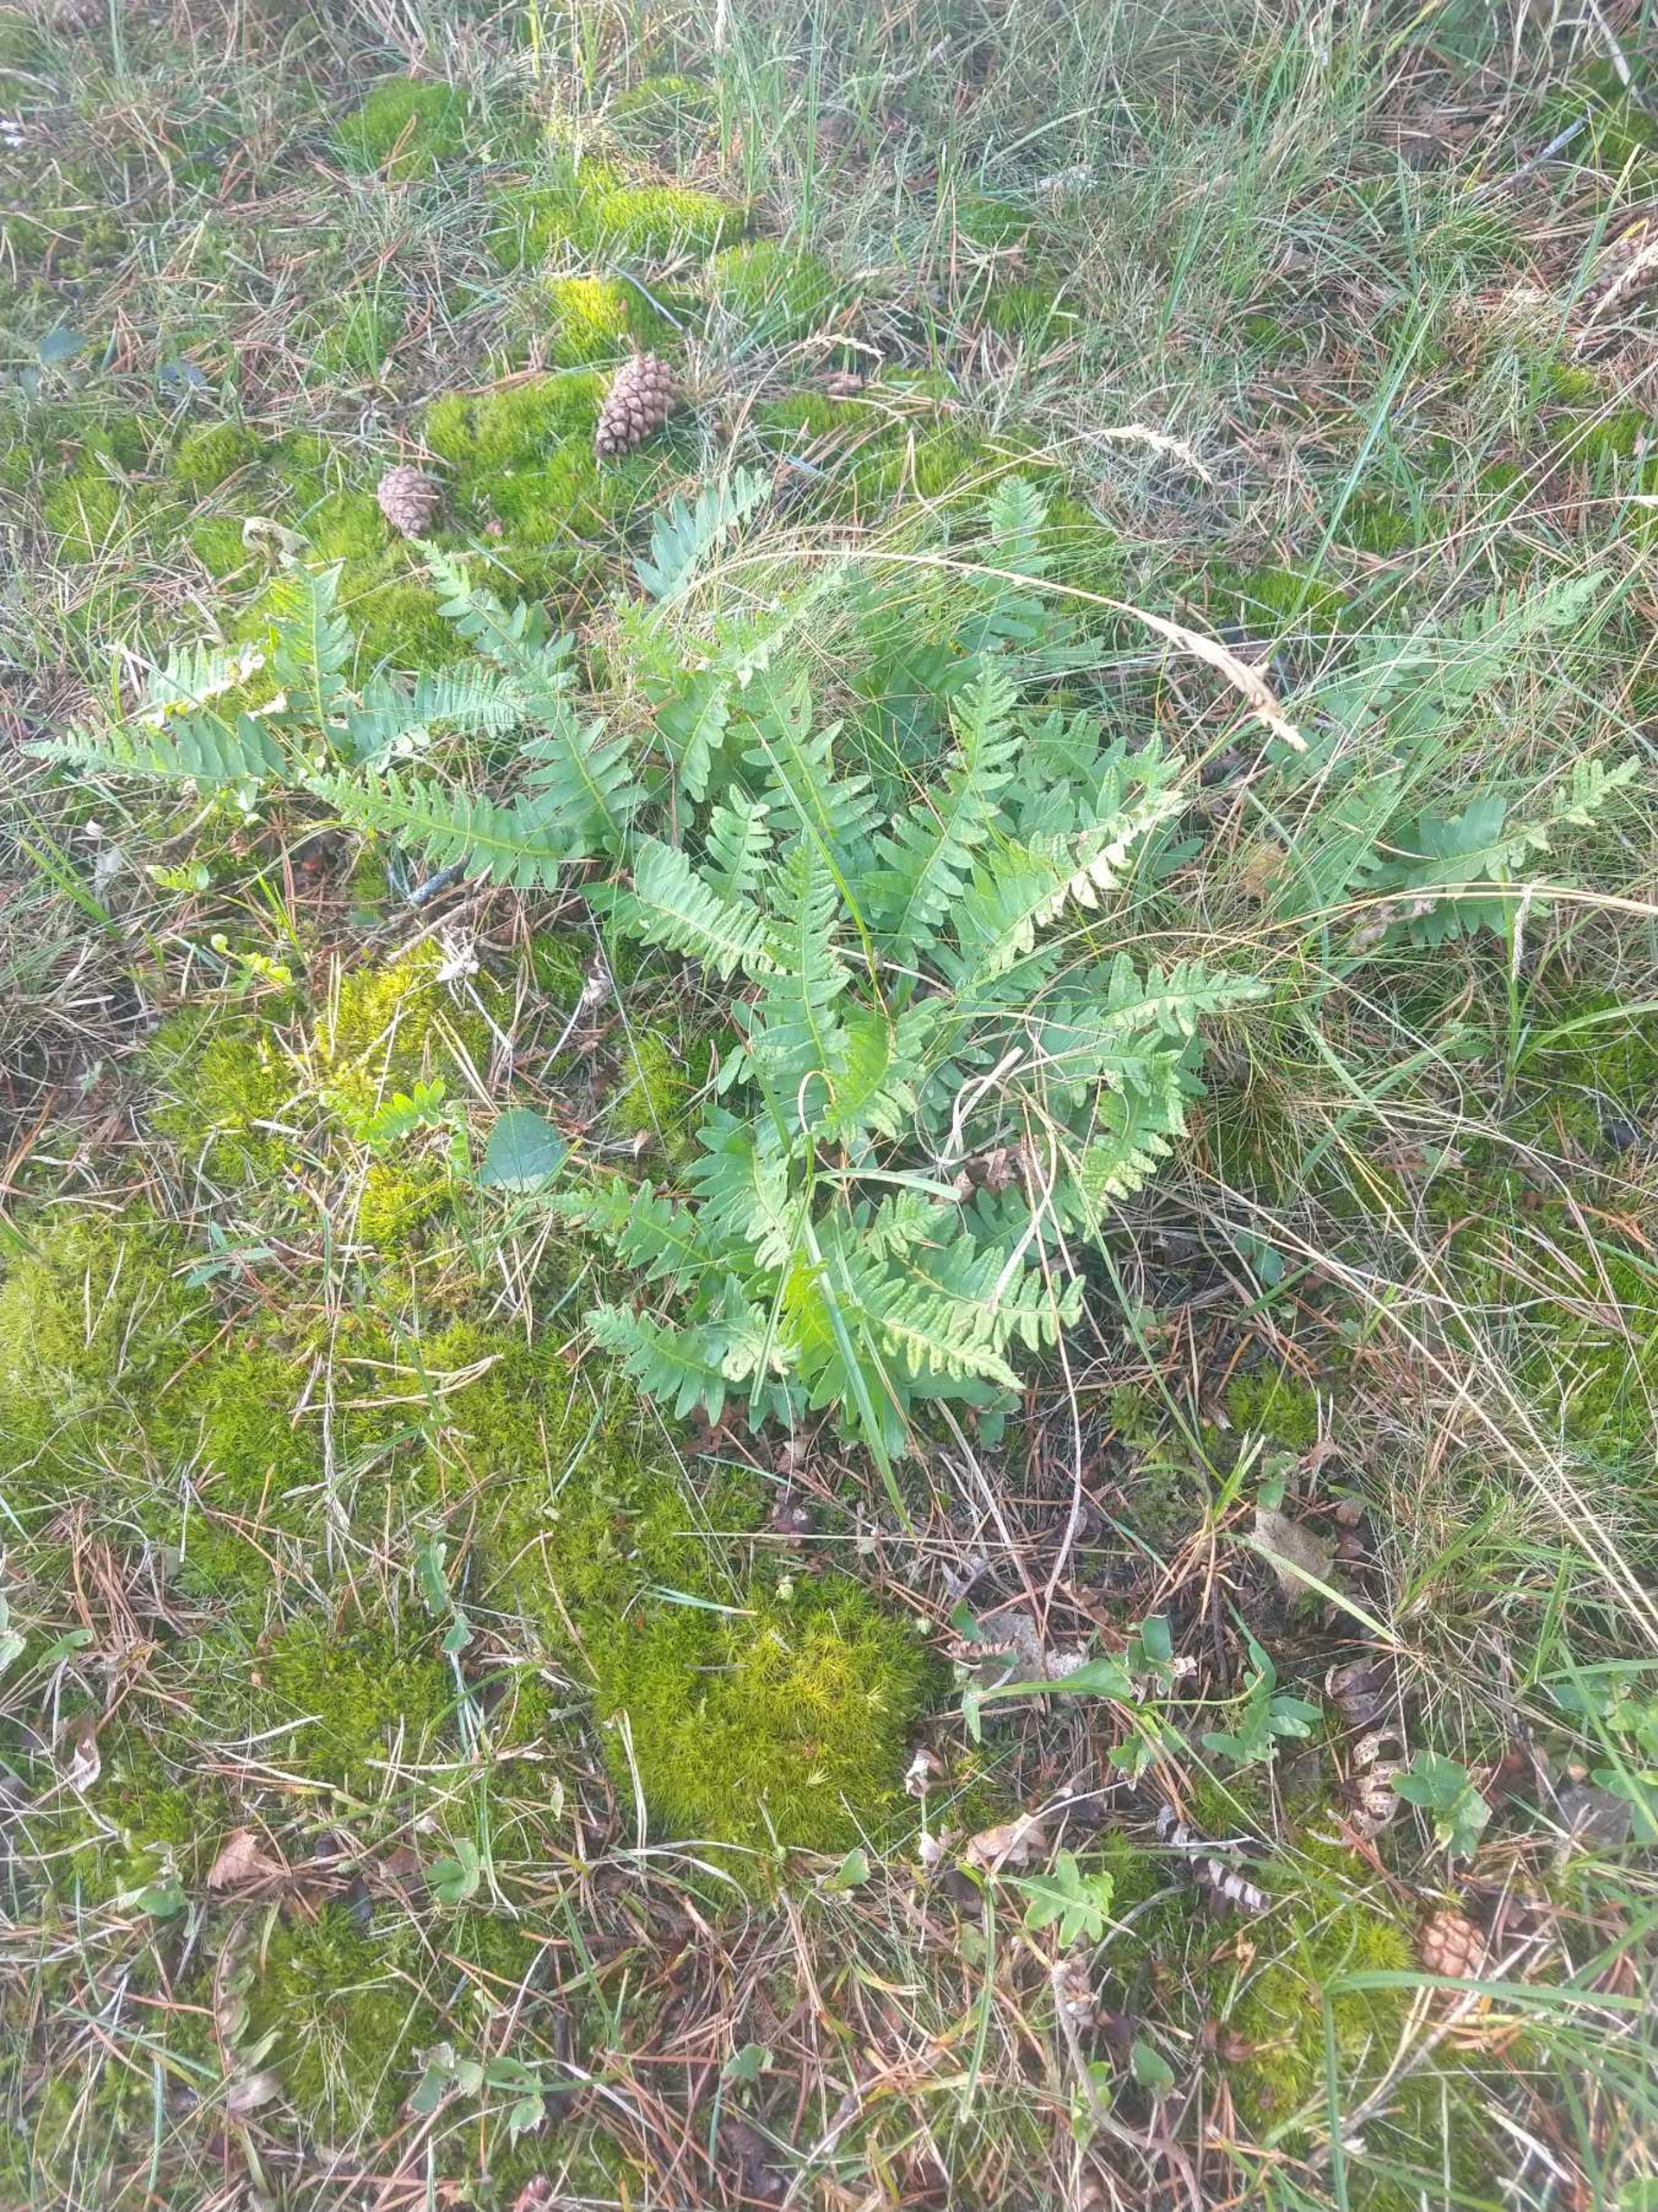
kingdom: Plantae
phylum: Tracheophyta
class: Polypodiopsida
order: Polypodiales
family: Polypodiaceae
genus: Polypodium
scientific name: Polypodium vulgare
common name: Almindelig engelsød
